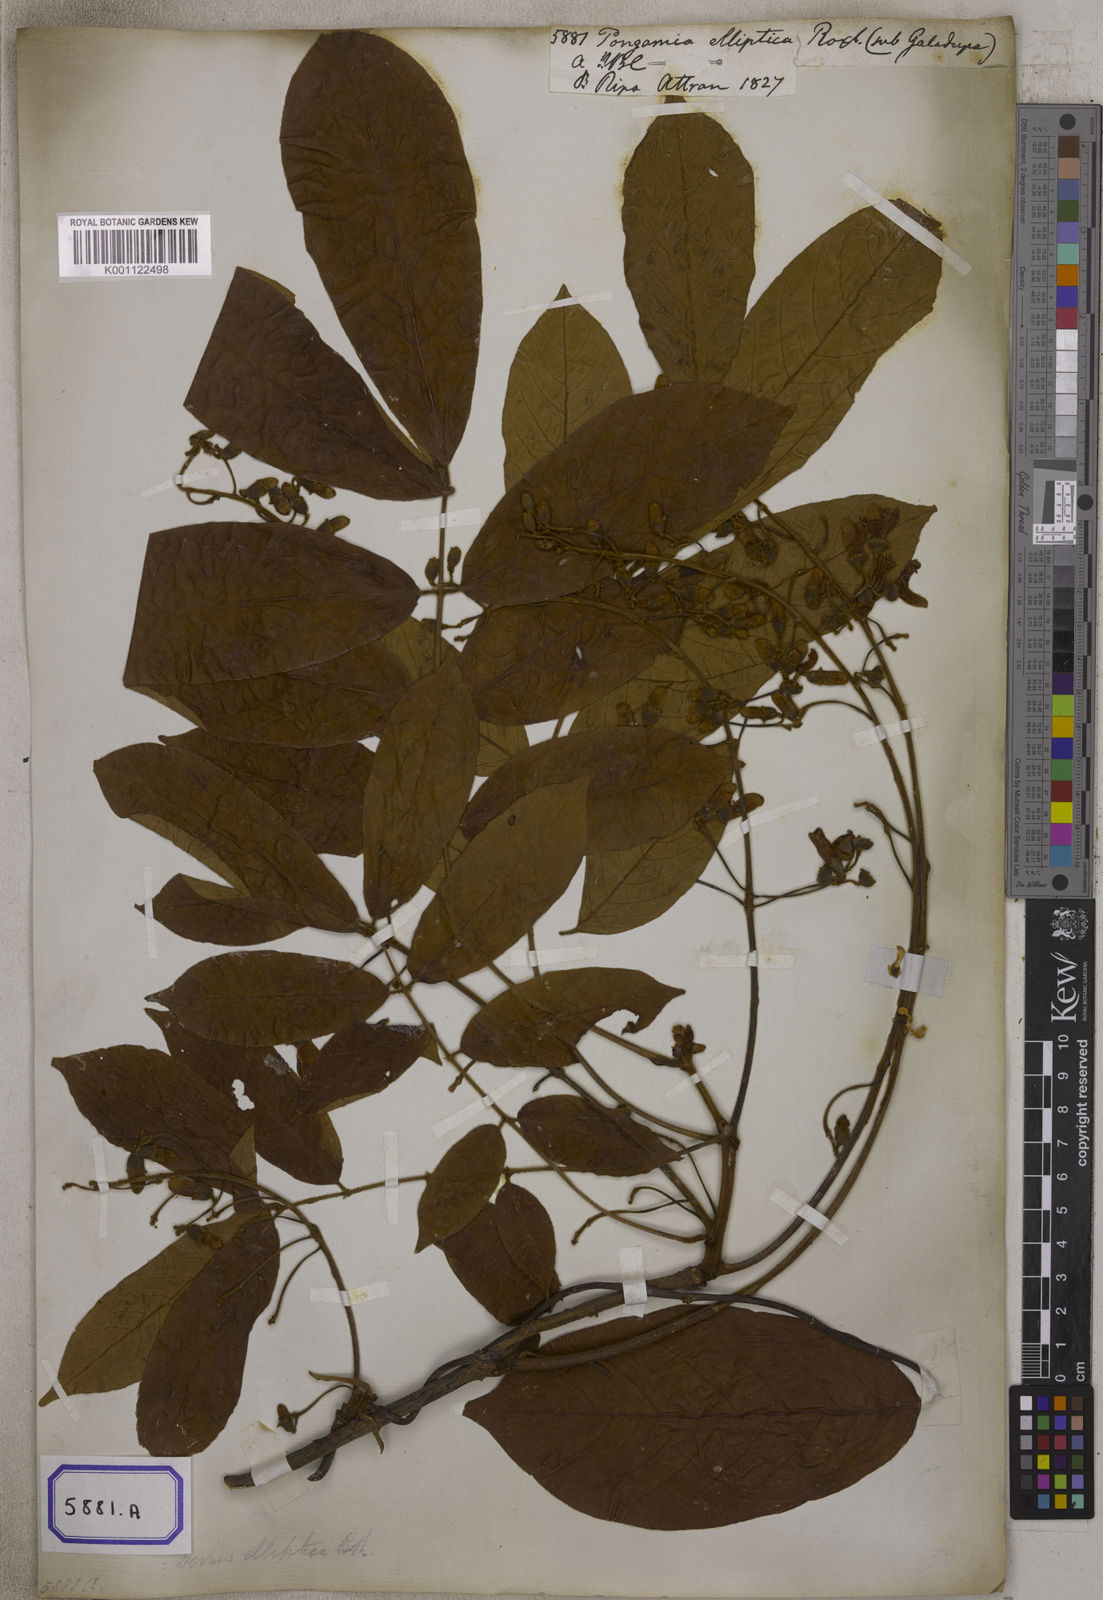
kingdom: Plantae
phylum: Tracheophyta
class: Magnoliopsida
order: Fabales
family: Fabaceae
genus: Pongamia
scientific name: Pongamia
